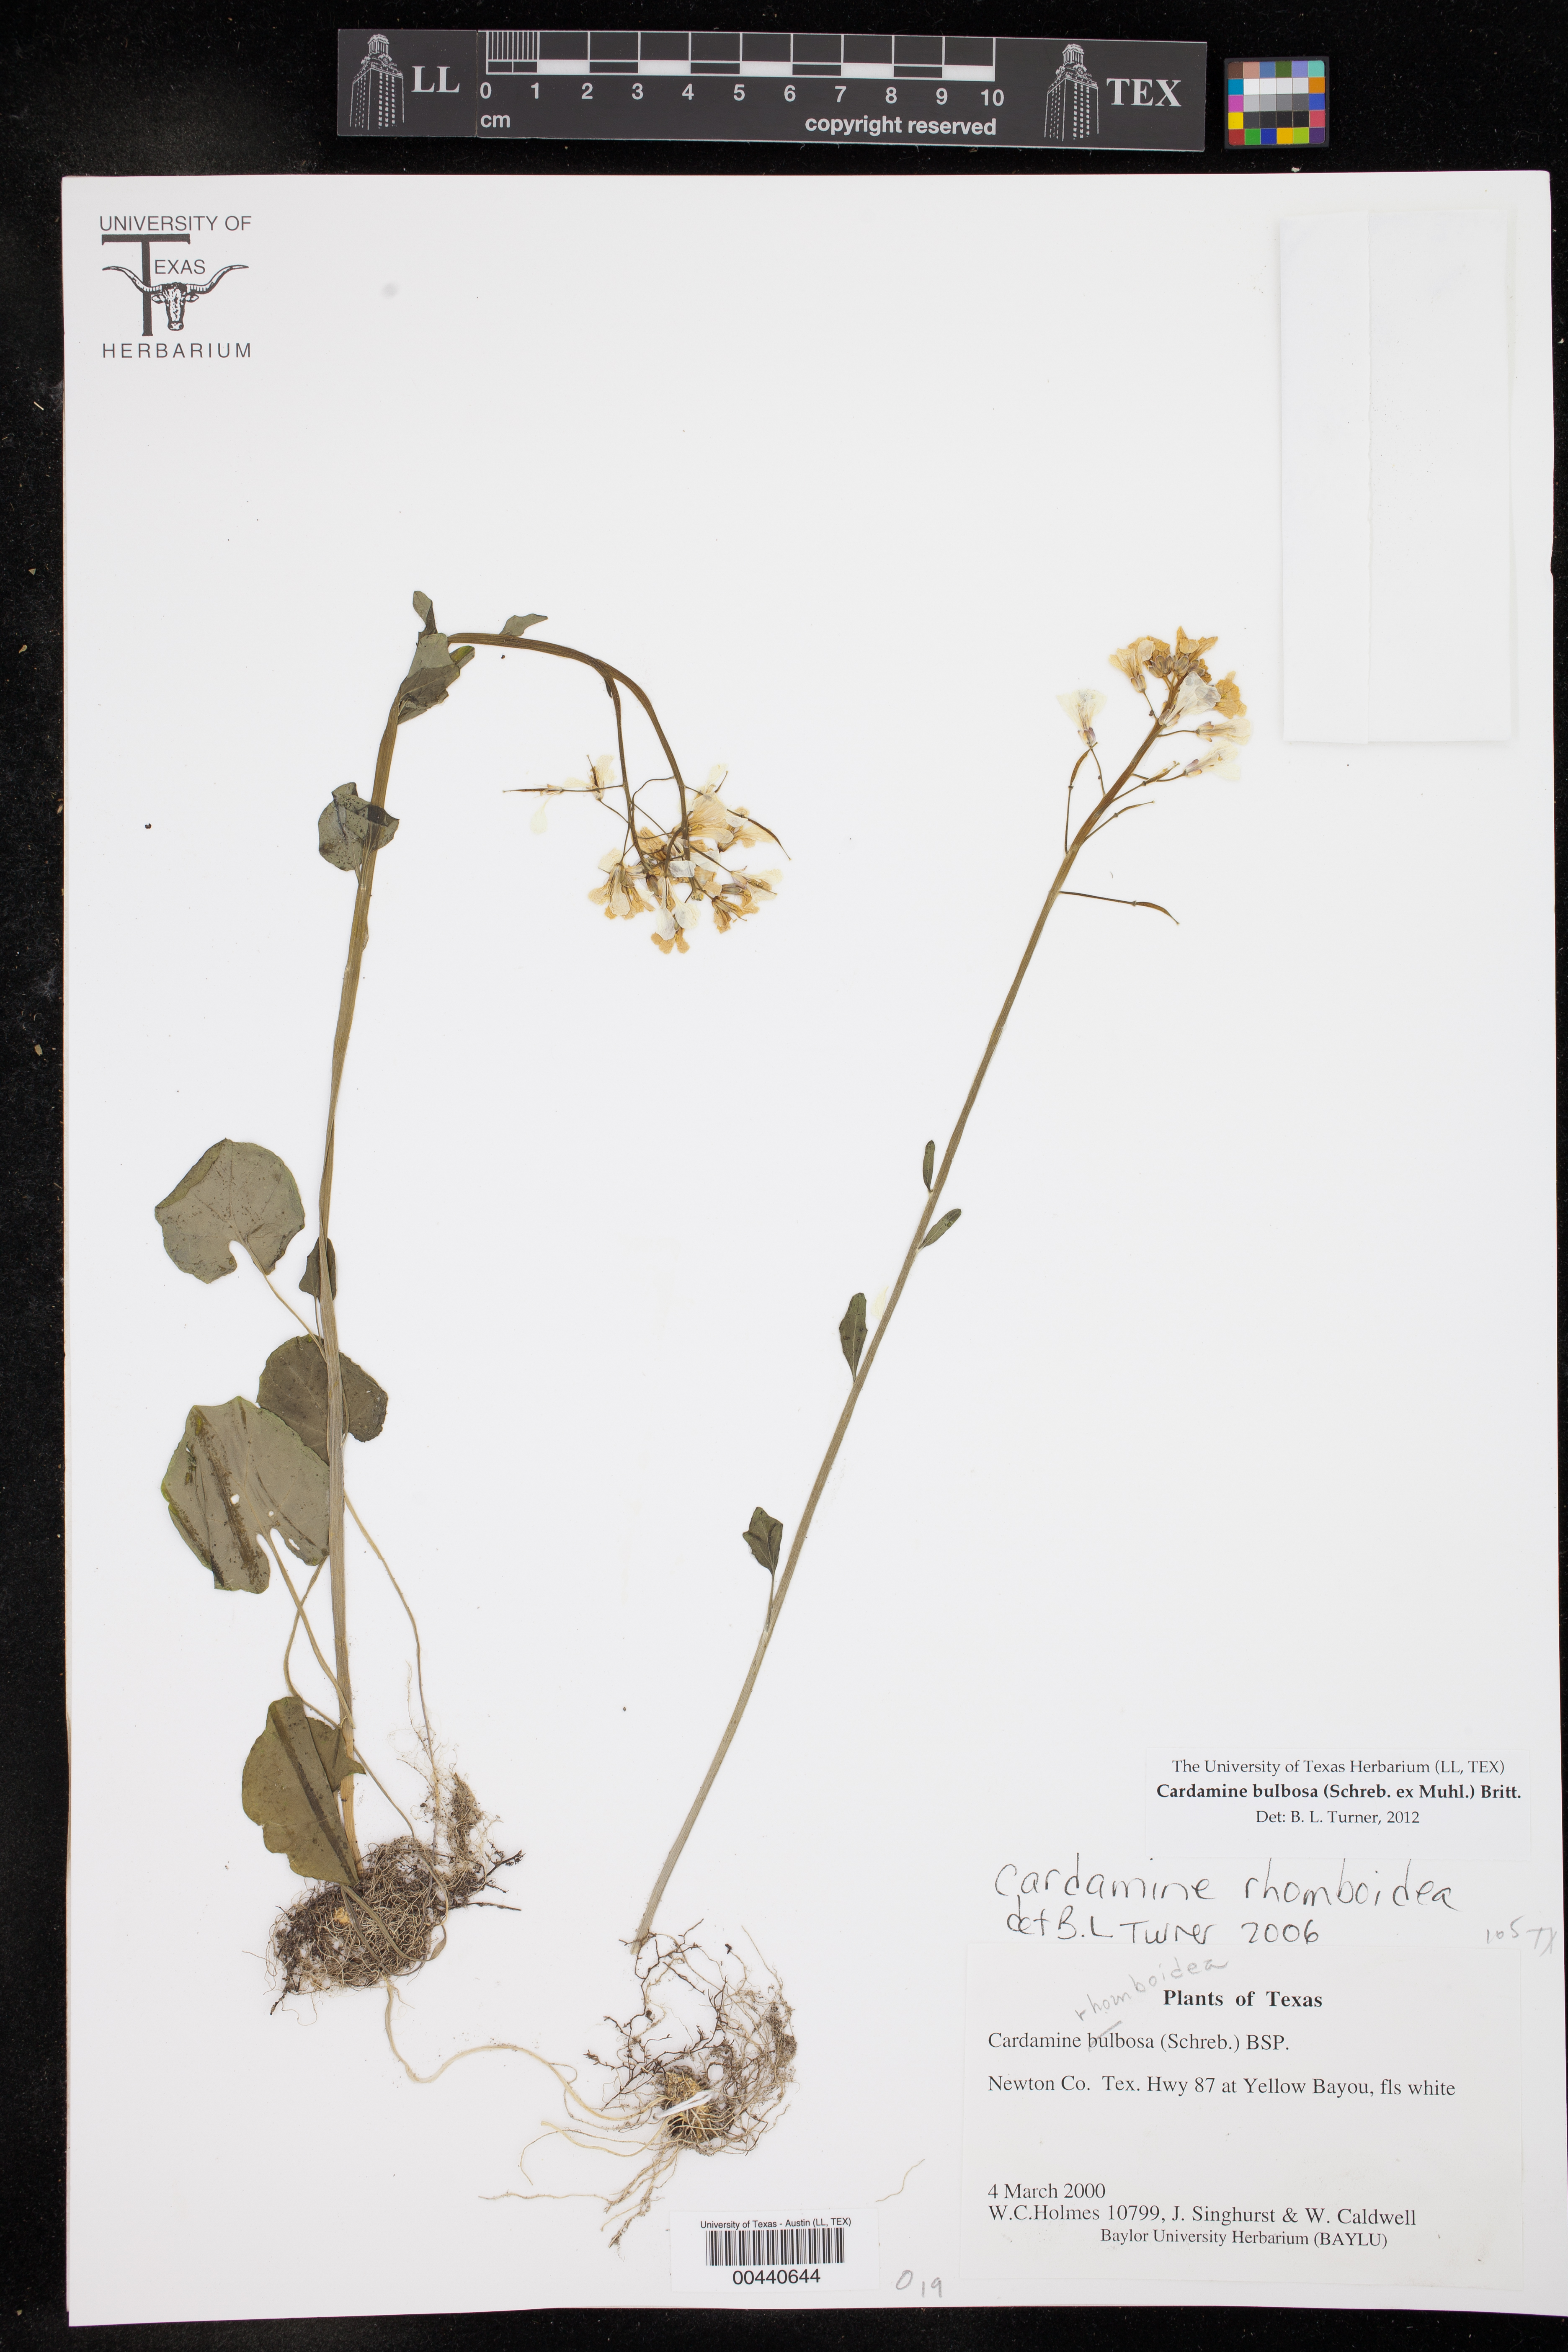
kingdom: Plantae
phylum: Tracheophyta
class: Magnoliopsida
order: Brassicales
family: Brassicaceae
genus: Cardamine
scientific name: Cardamine bulbosa
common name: Spring cress
